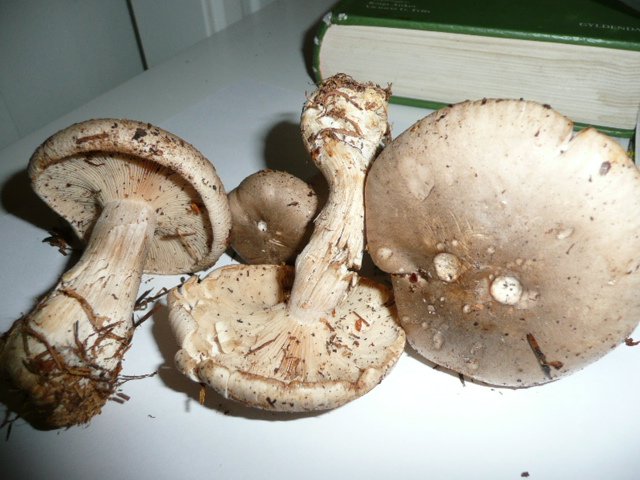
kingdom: Fungi
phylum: Basidiomycota
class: Agaricomycetes
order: Agaricales
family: Tricholomataceae
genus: Clitocybe
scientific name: Clitocybe nebularis
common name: tåge-tragthat
